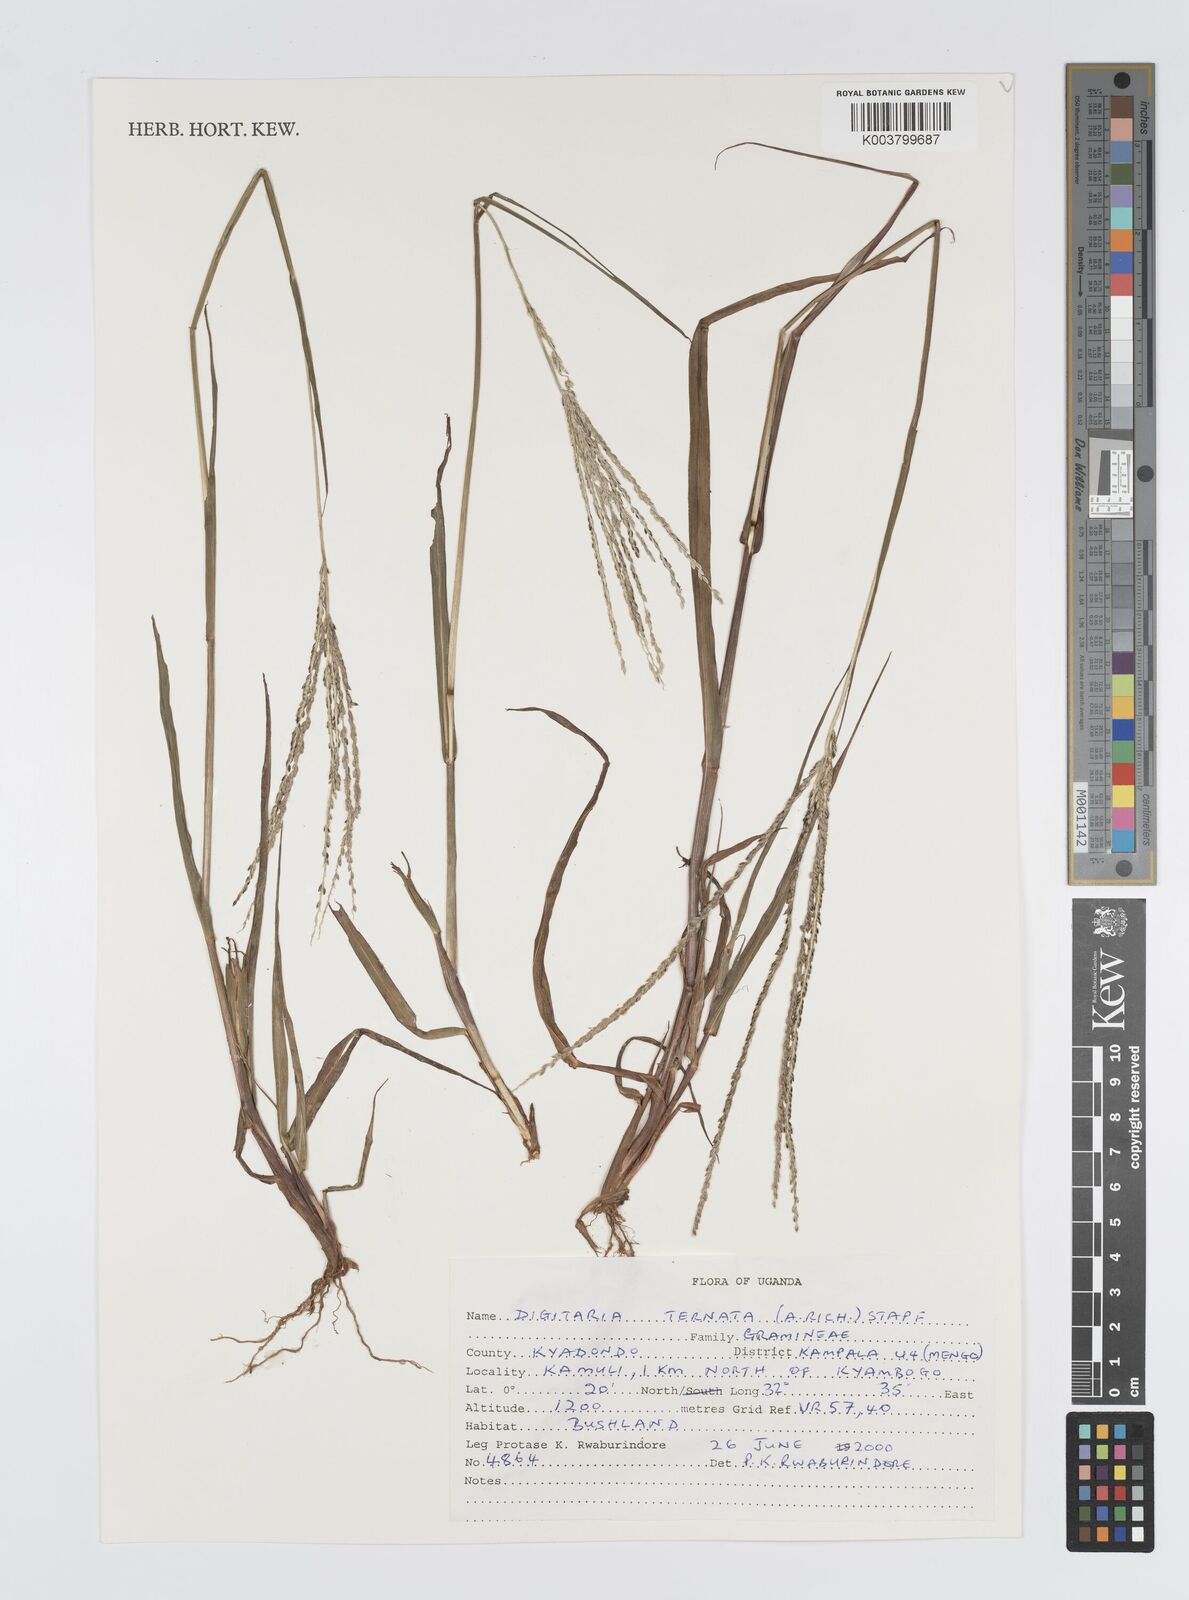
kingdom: Plantae
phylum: Tracheophyta
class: Liliopsida
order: Poales
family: Poaceae
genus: Digitaria
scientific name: Digitaria ternata
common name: Blackseed crabgrass
